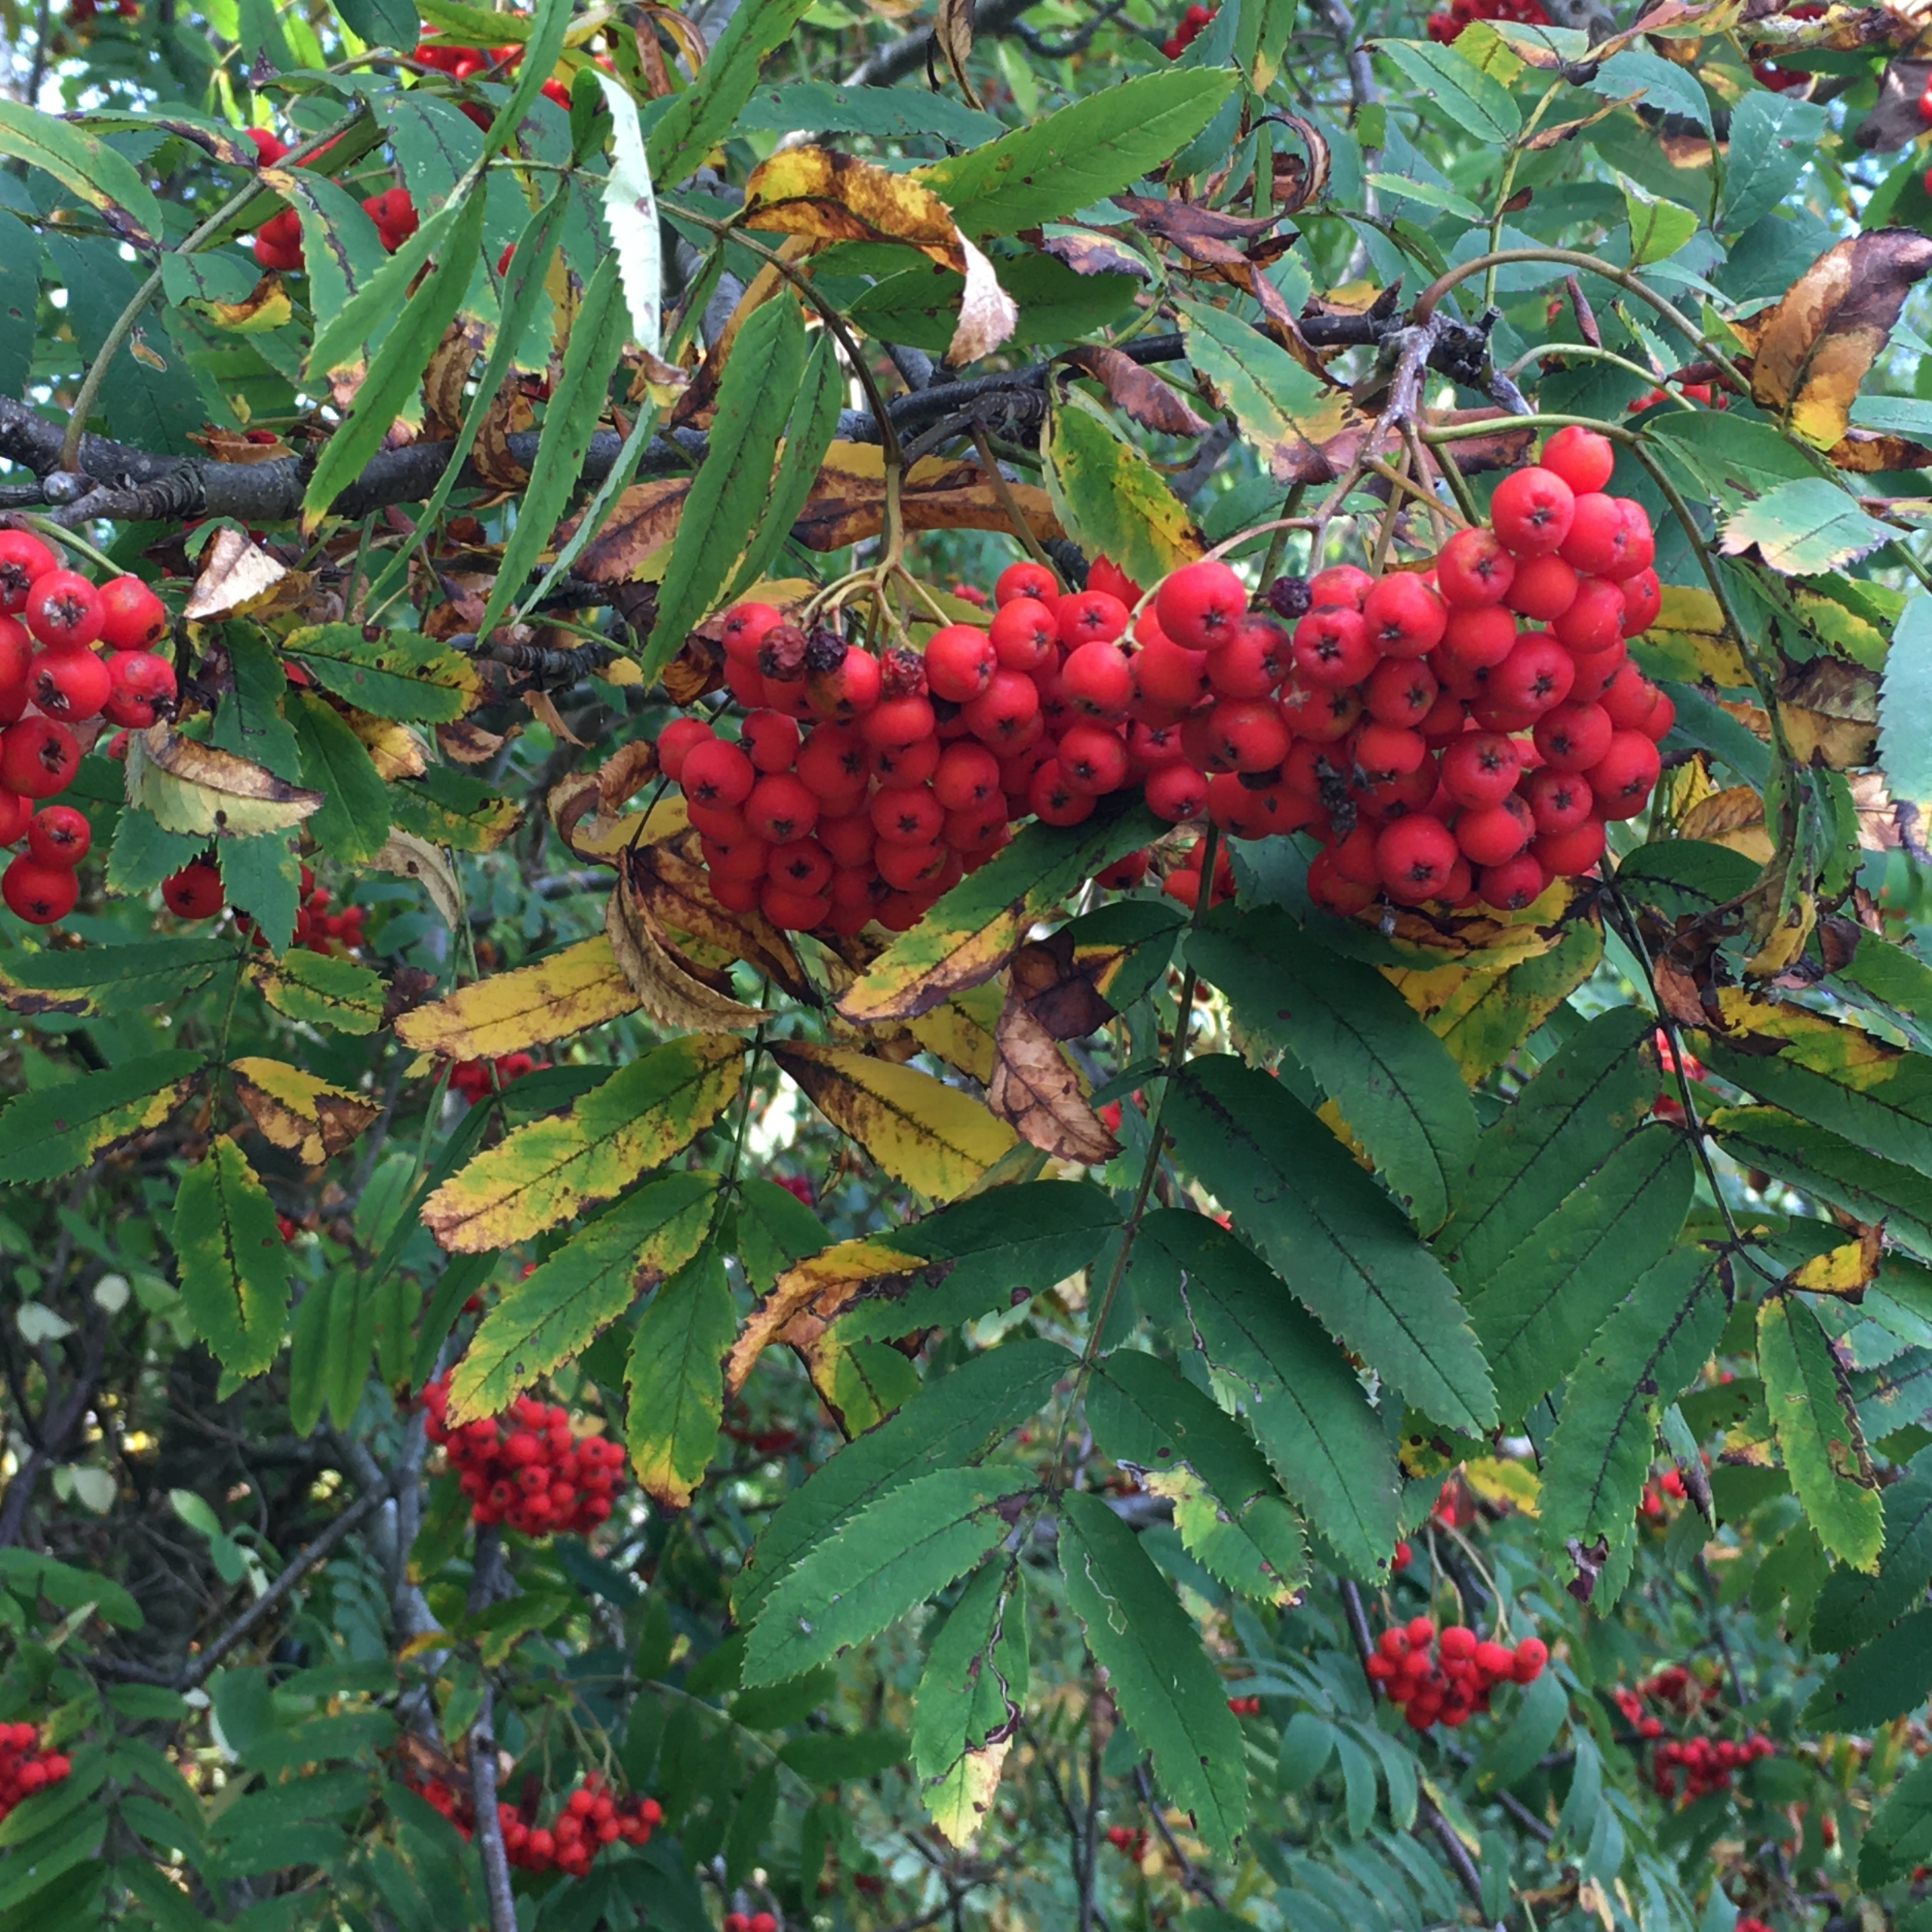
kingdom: Plantae
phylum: Tracheophyta
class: Magnoliopsida
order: Rosales
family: Rosaceae
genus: Sorbus
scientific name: Sorbus aucuparia
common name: Almindelig røn
